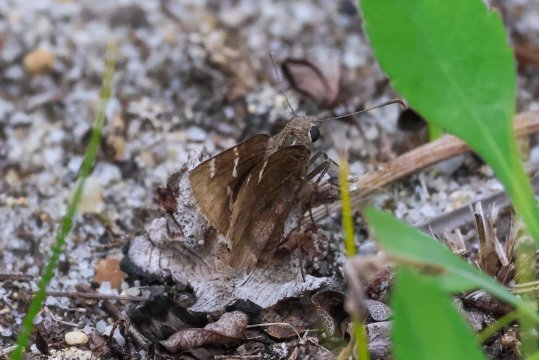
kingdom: Animalia
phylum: Arthropoda
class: Insecta
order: Lepidoptera
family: Hesperiidae
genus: Autochton
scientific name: Autochton
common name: Southern Cloudywing
